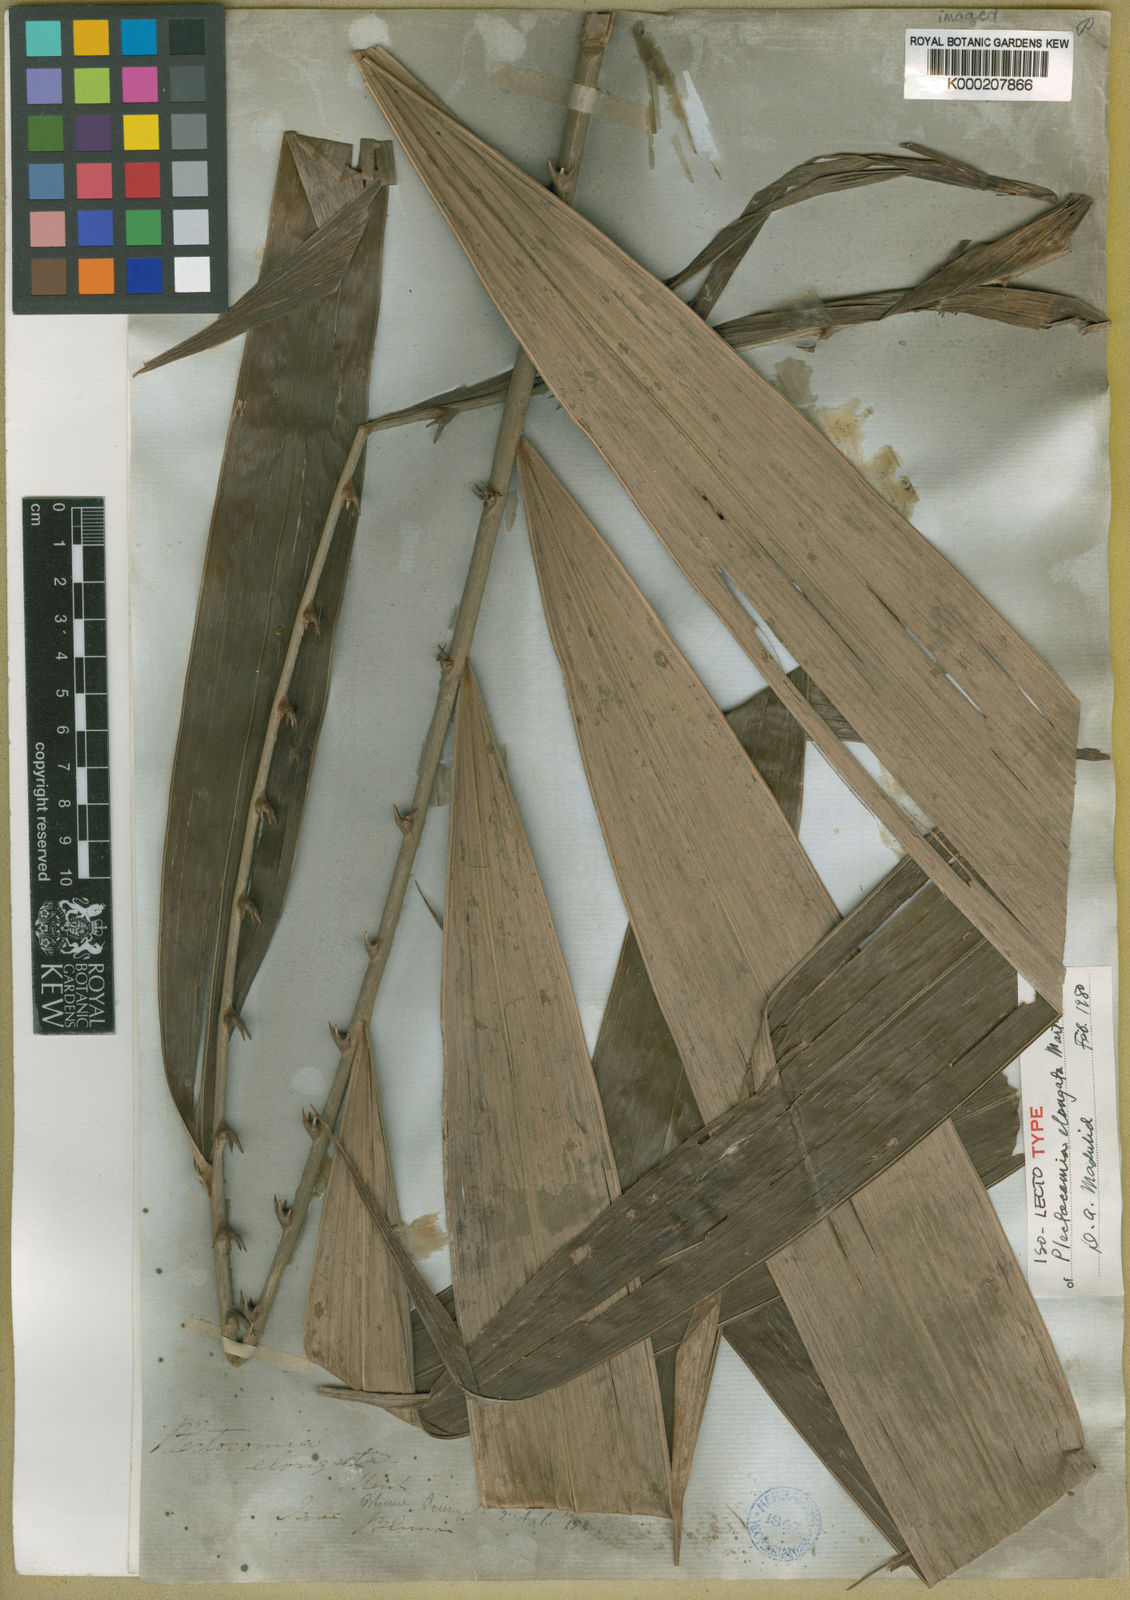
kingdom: Plantae
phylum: Tracheophyta
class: Liliopsida
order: Arecales
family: Arecaceae
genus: Plectocomia
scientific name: Plectocomia elongata
